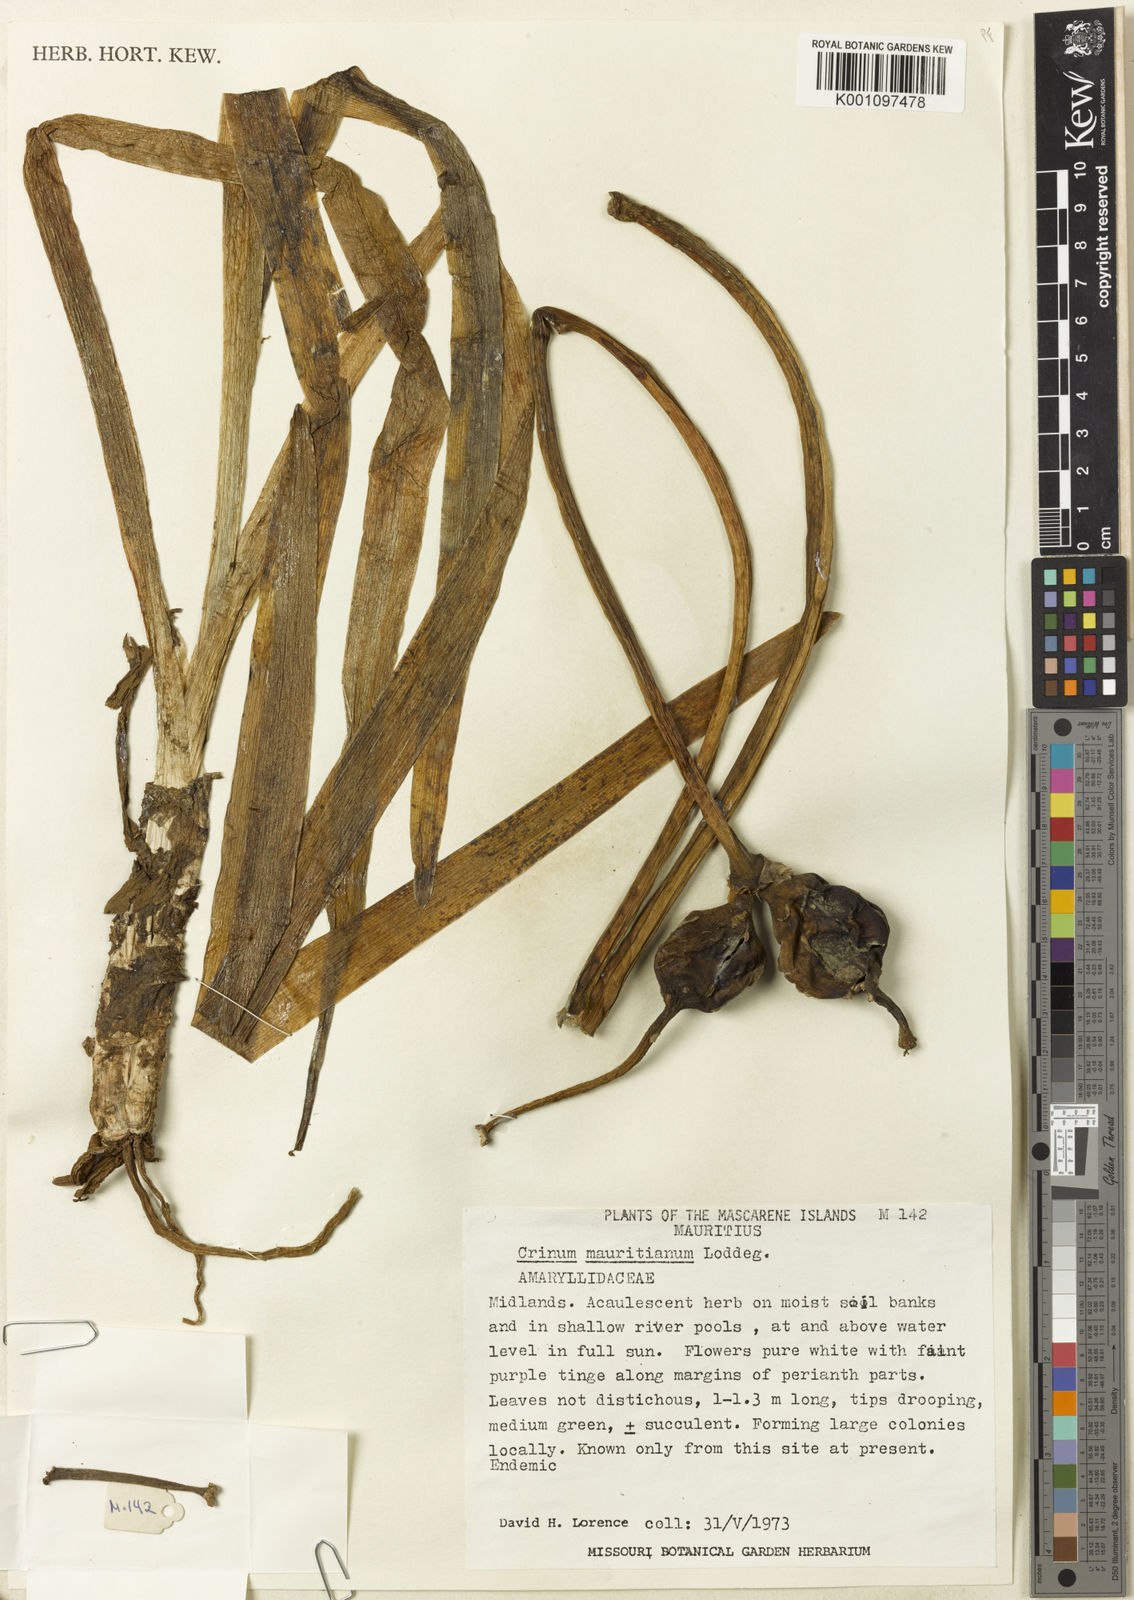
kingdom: Plantae
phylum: Tracheophyta
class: Liliopsida
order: Asparagales
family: Amaryllidaceae
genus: Crinum
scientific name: Crinum mauritianum
